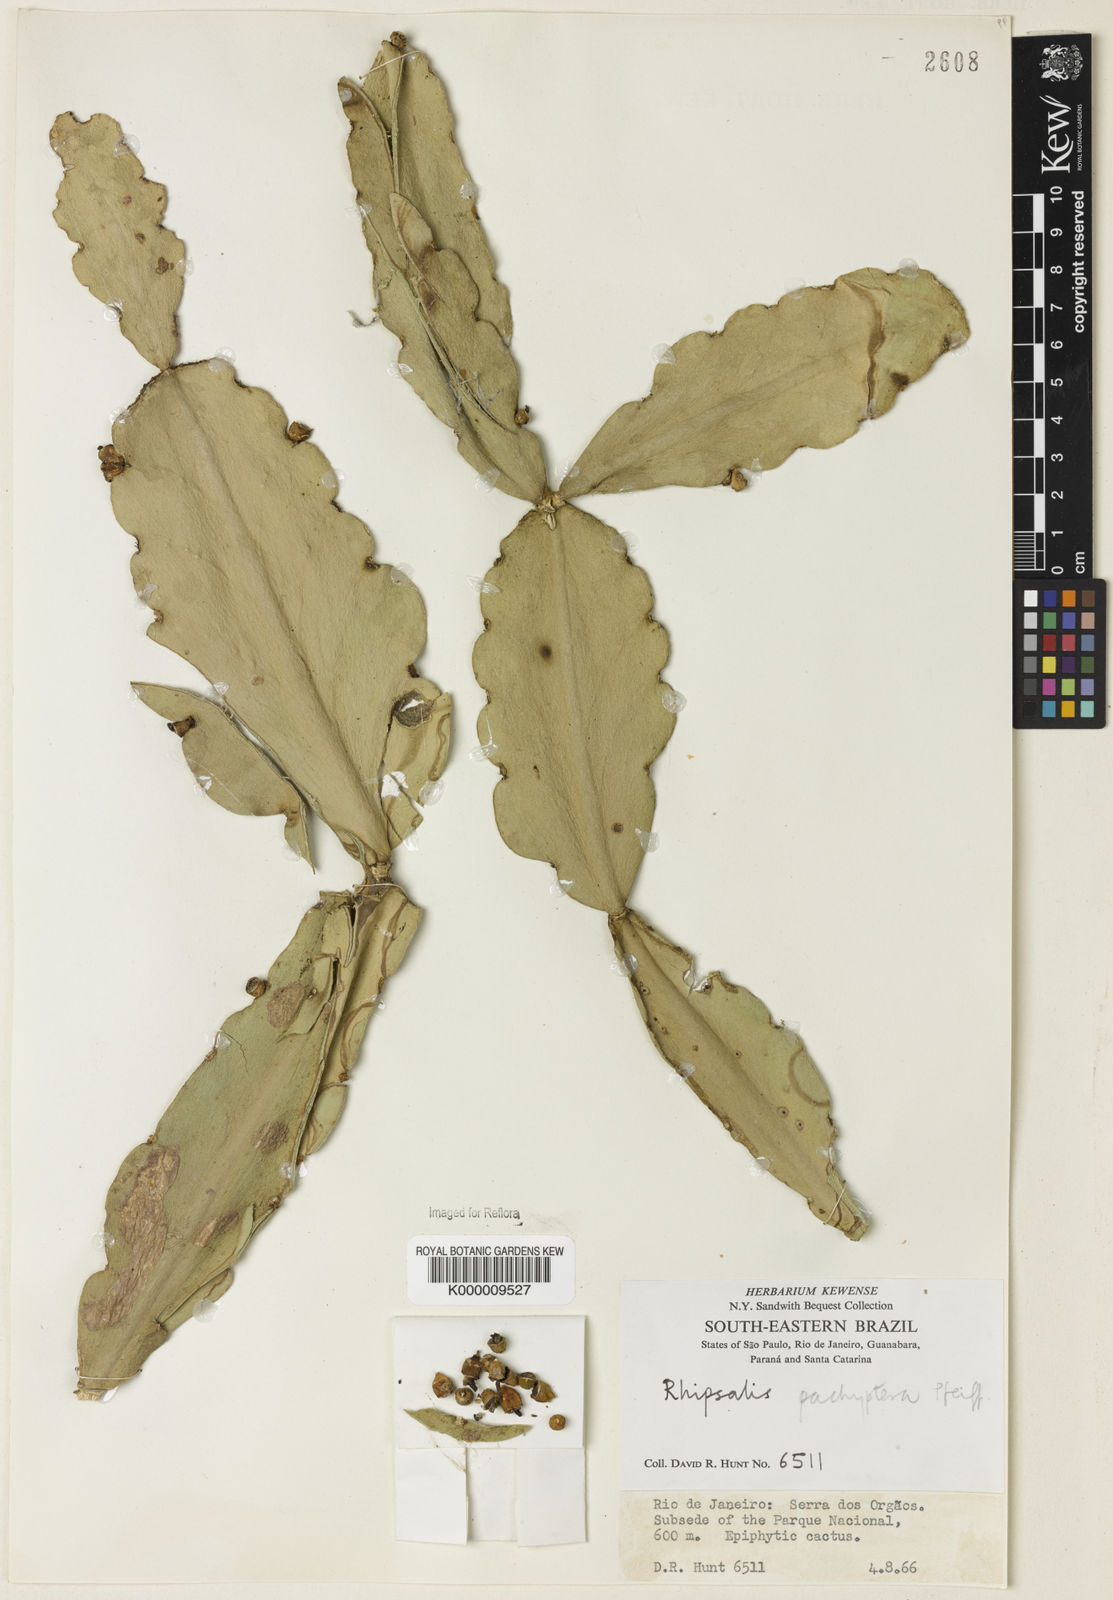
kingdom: Plantae
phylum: Tracheophyta
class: Magnoliopsida
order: Caryophyllales
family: Cactaceae
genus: Rhipsalis
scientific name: Rhipsalis pachyptera
